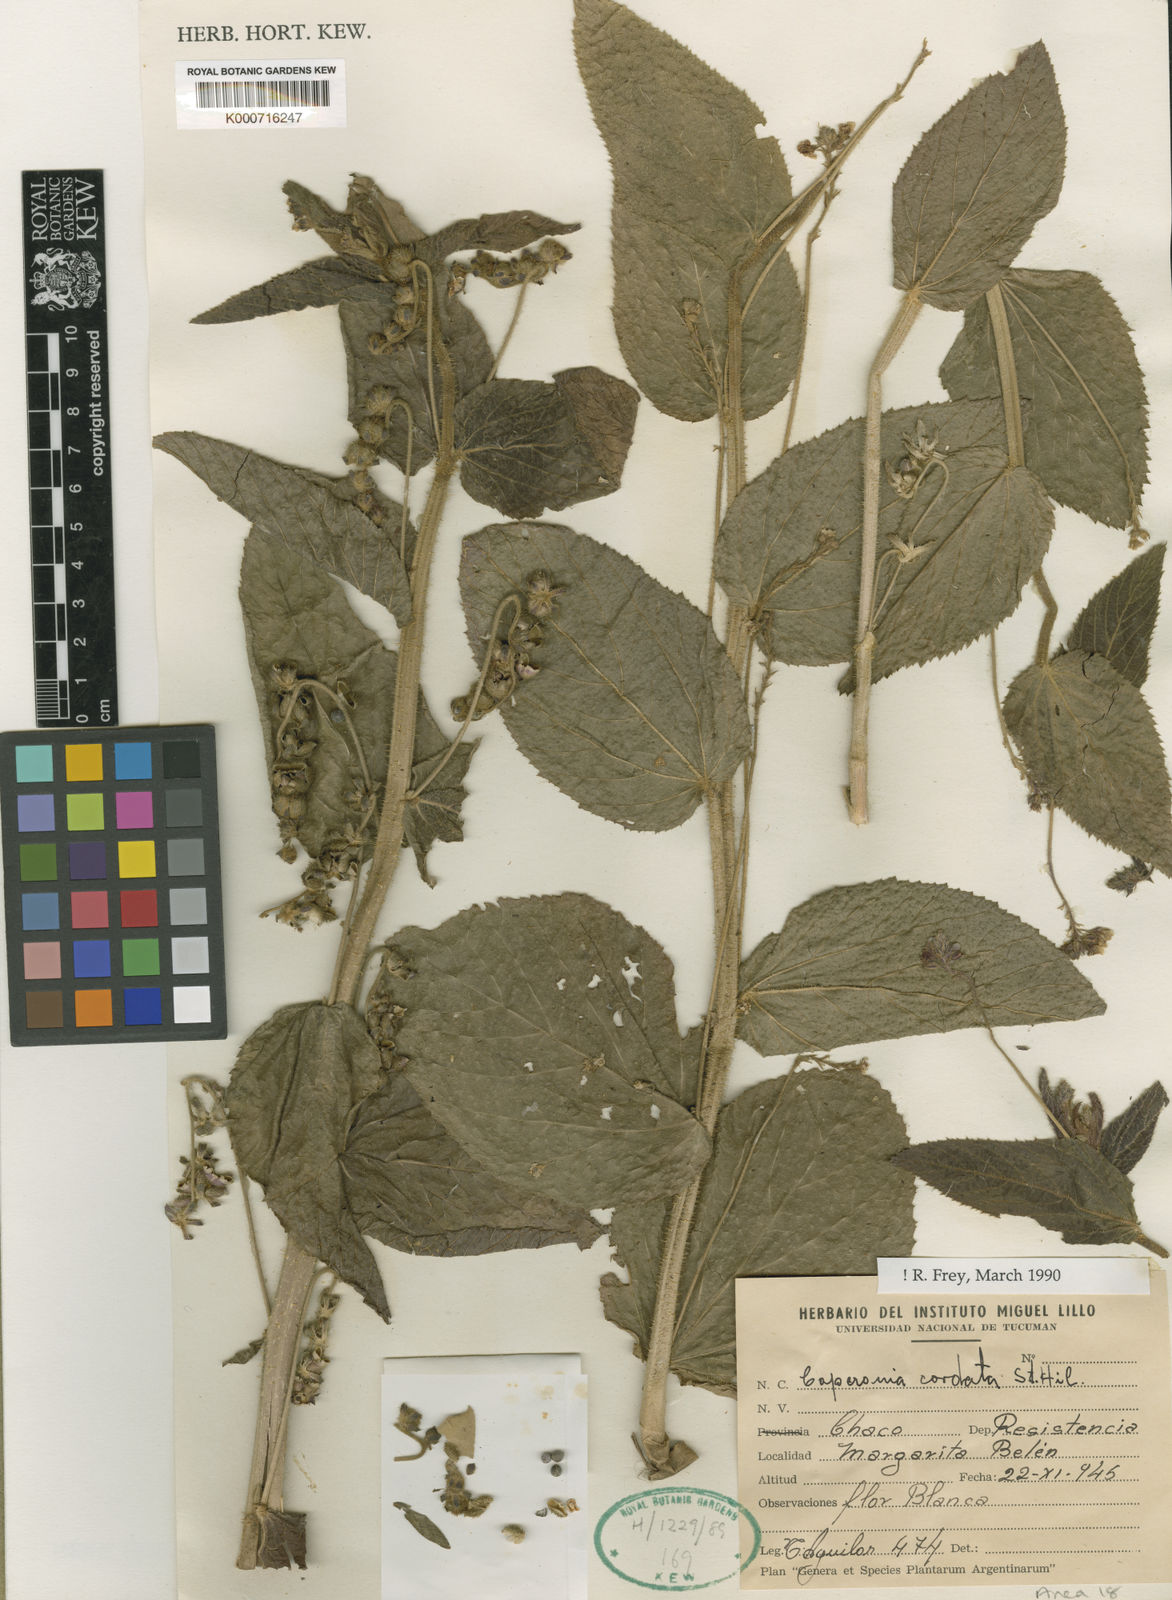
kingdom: Plantae
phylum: Tracheophyta
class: Magnoliopsida
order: Malpighiales
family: Euphorbiaceae
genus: Caperonia
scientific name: Caperonia cordata
